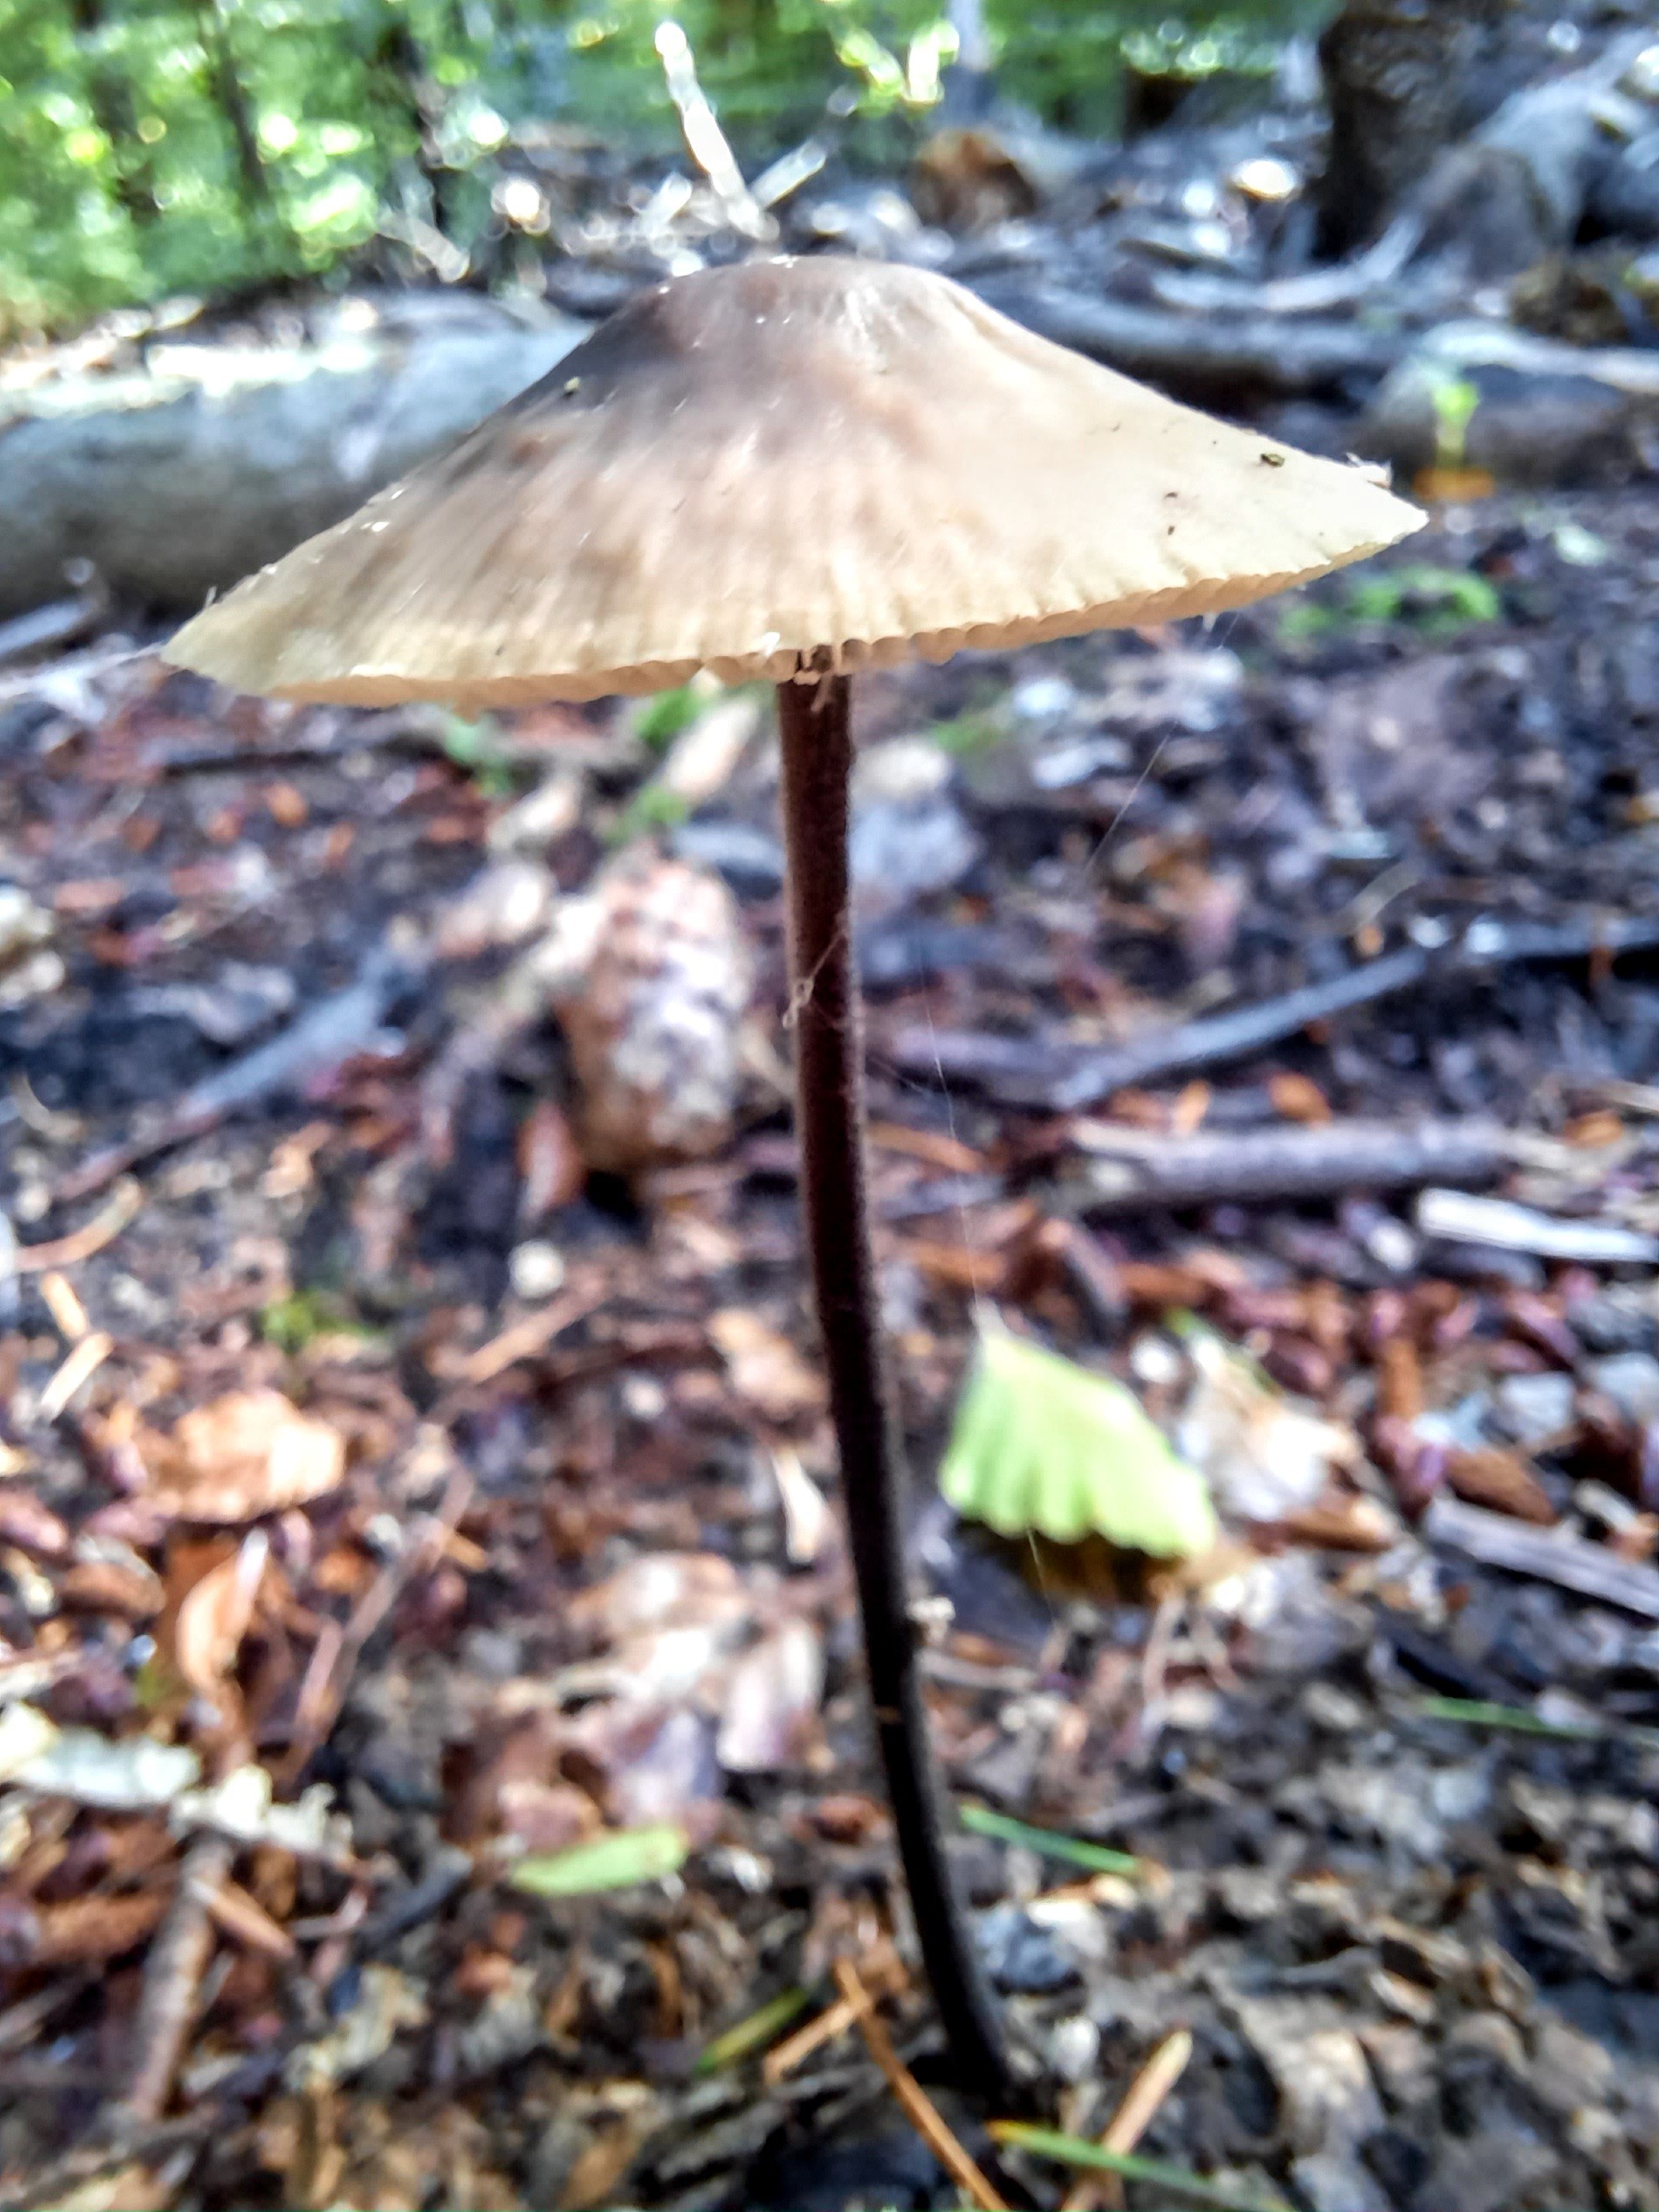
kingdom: Fungi
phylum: Basidiomycota
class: Agaricomycetes
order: Agaricales
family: Omphalotaceae
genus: Mycetinis
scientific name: Mycetinis alliaceus
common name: stor løghat
